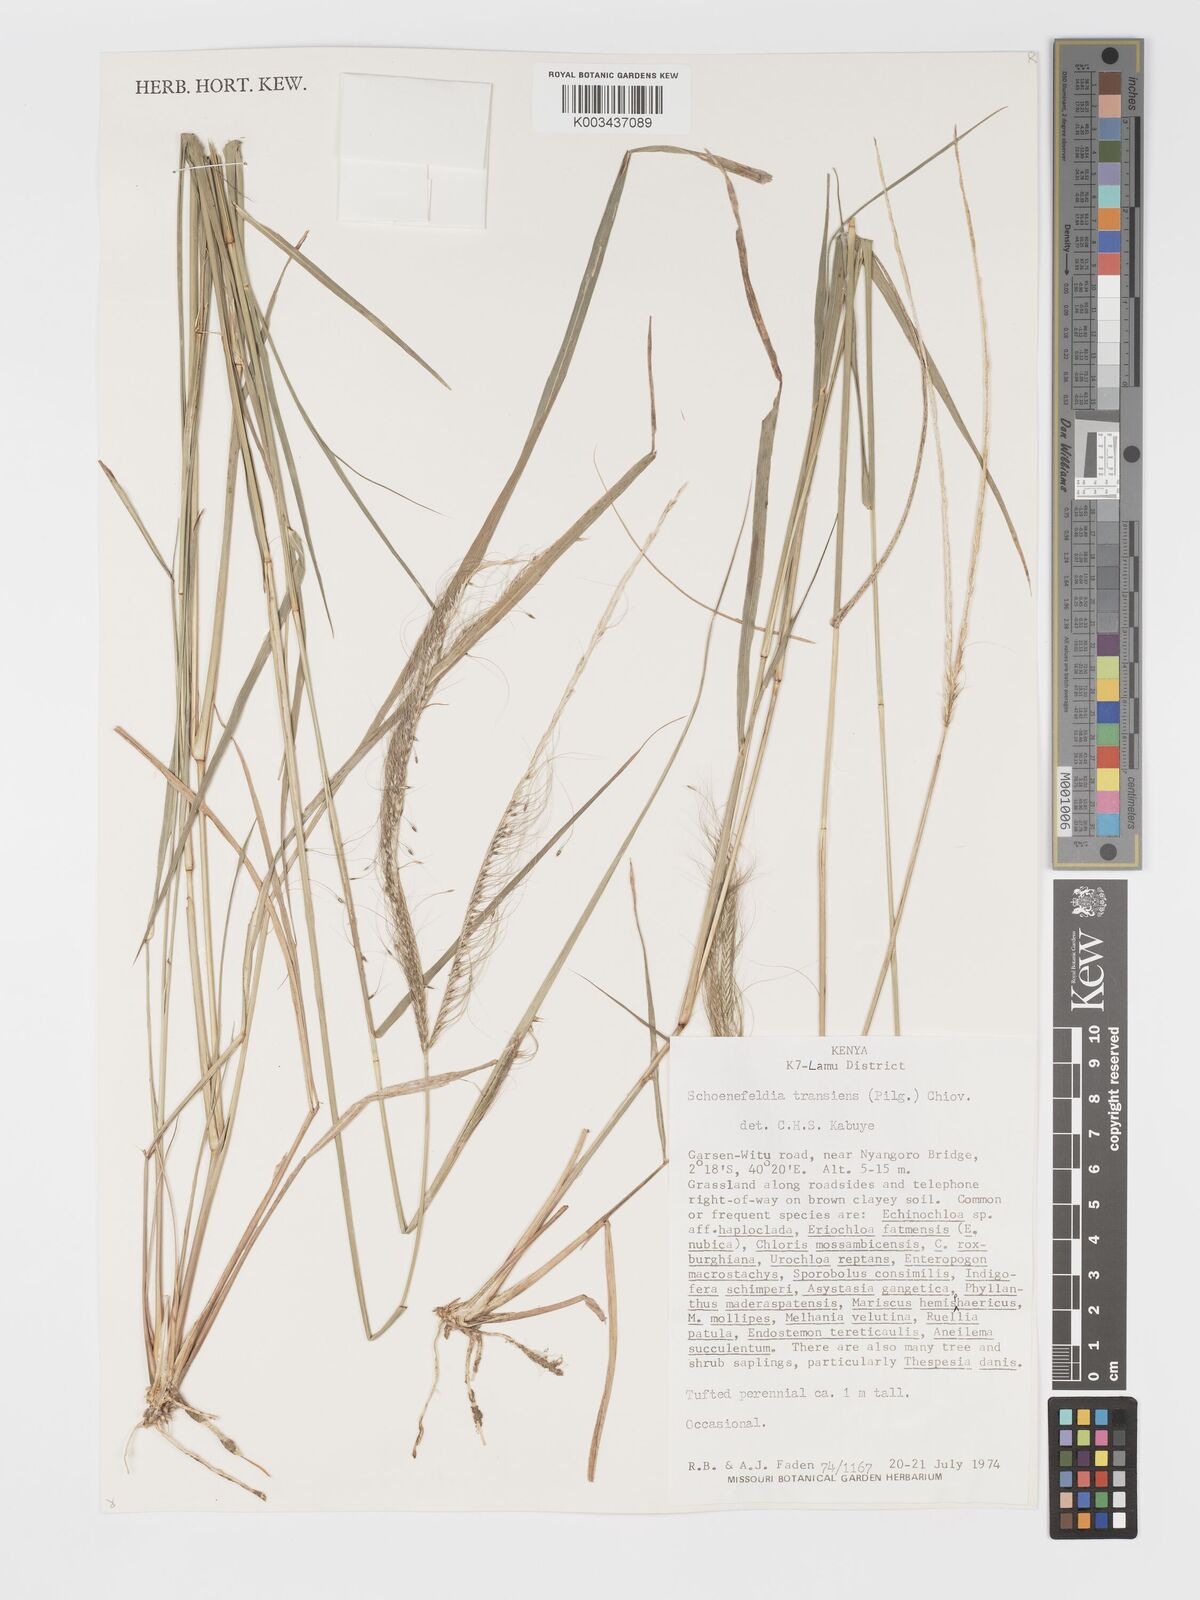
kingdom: Plantae
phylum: Tracheophyta
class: Liliopsida
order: Poales
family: Poaceae
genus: Schoenefeldia
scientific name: Schoenefeldia transiens
